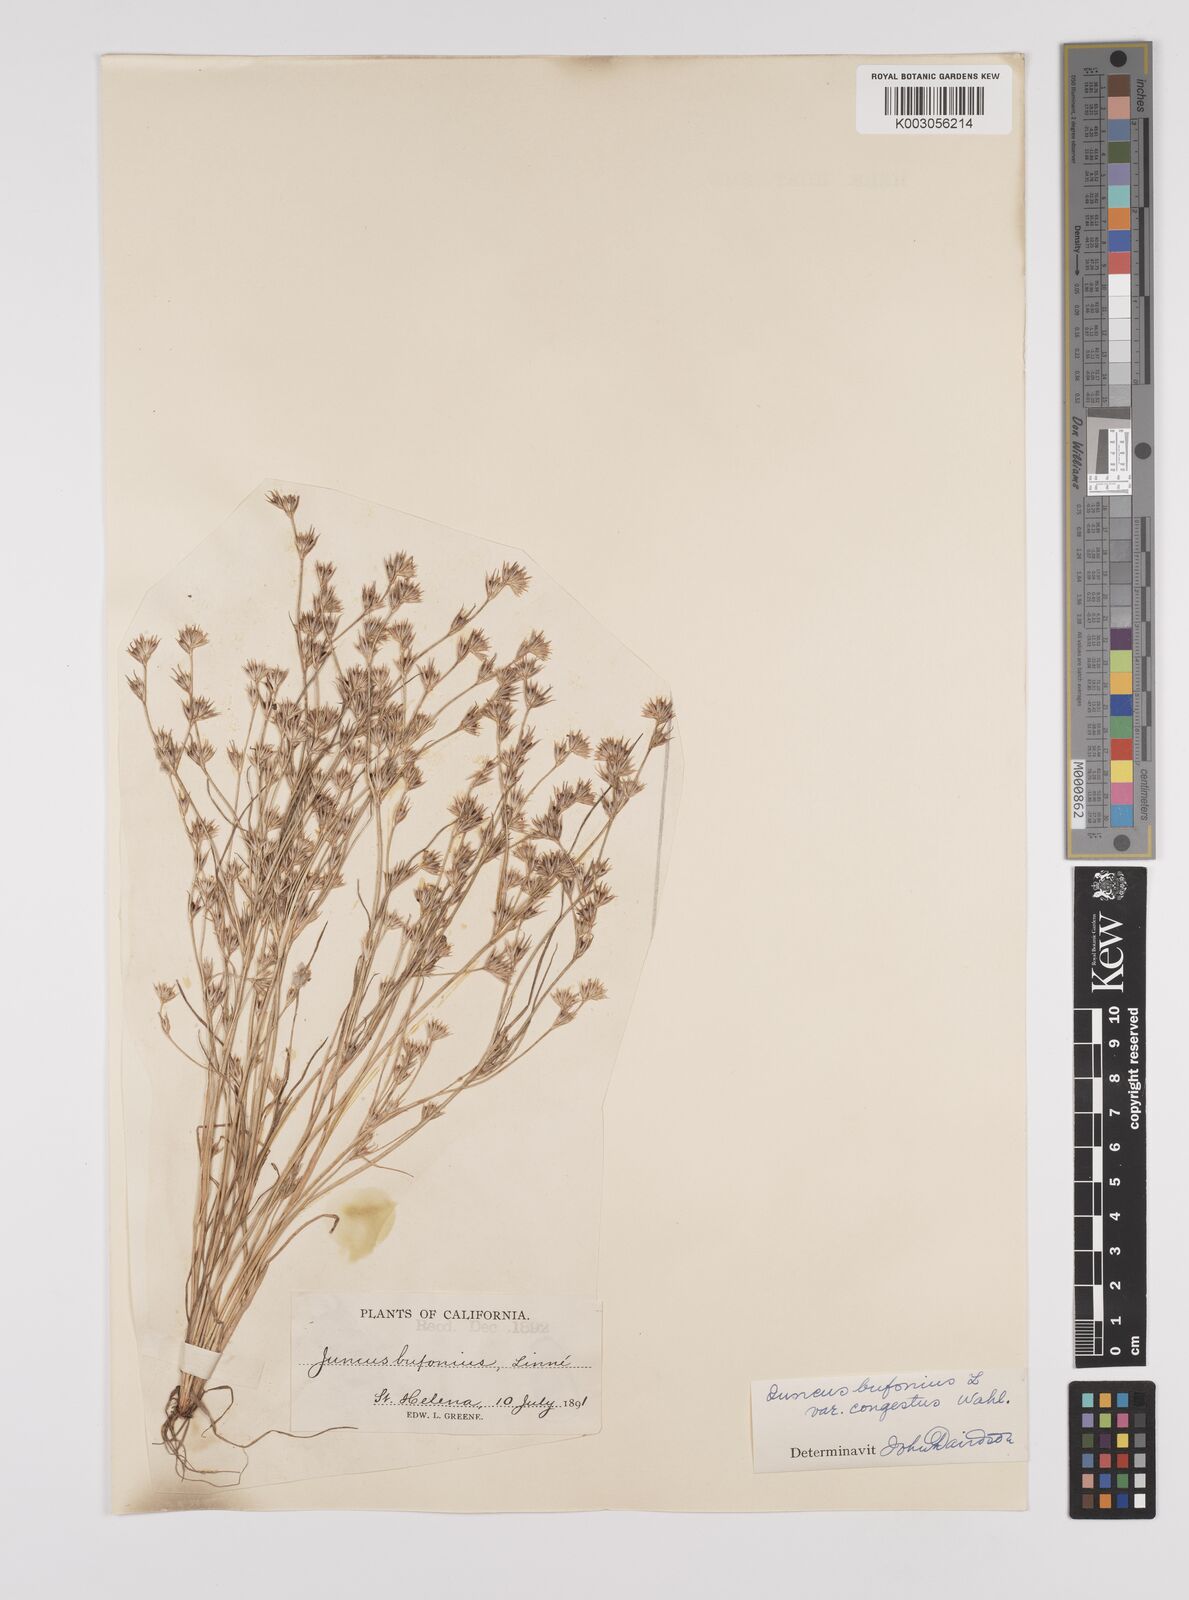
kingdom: Plantae
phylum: Tracheophyta
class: Liliopsida
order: Poales
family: Juncaceae
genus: Juncus
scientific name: Juncus bufonius
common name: Toad rush
